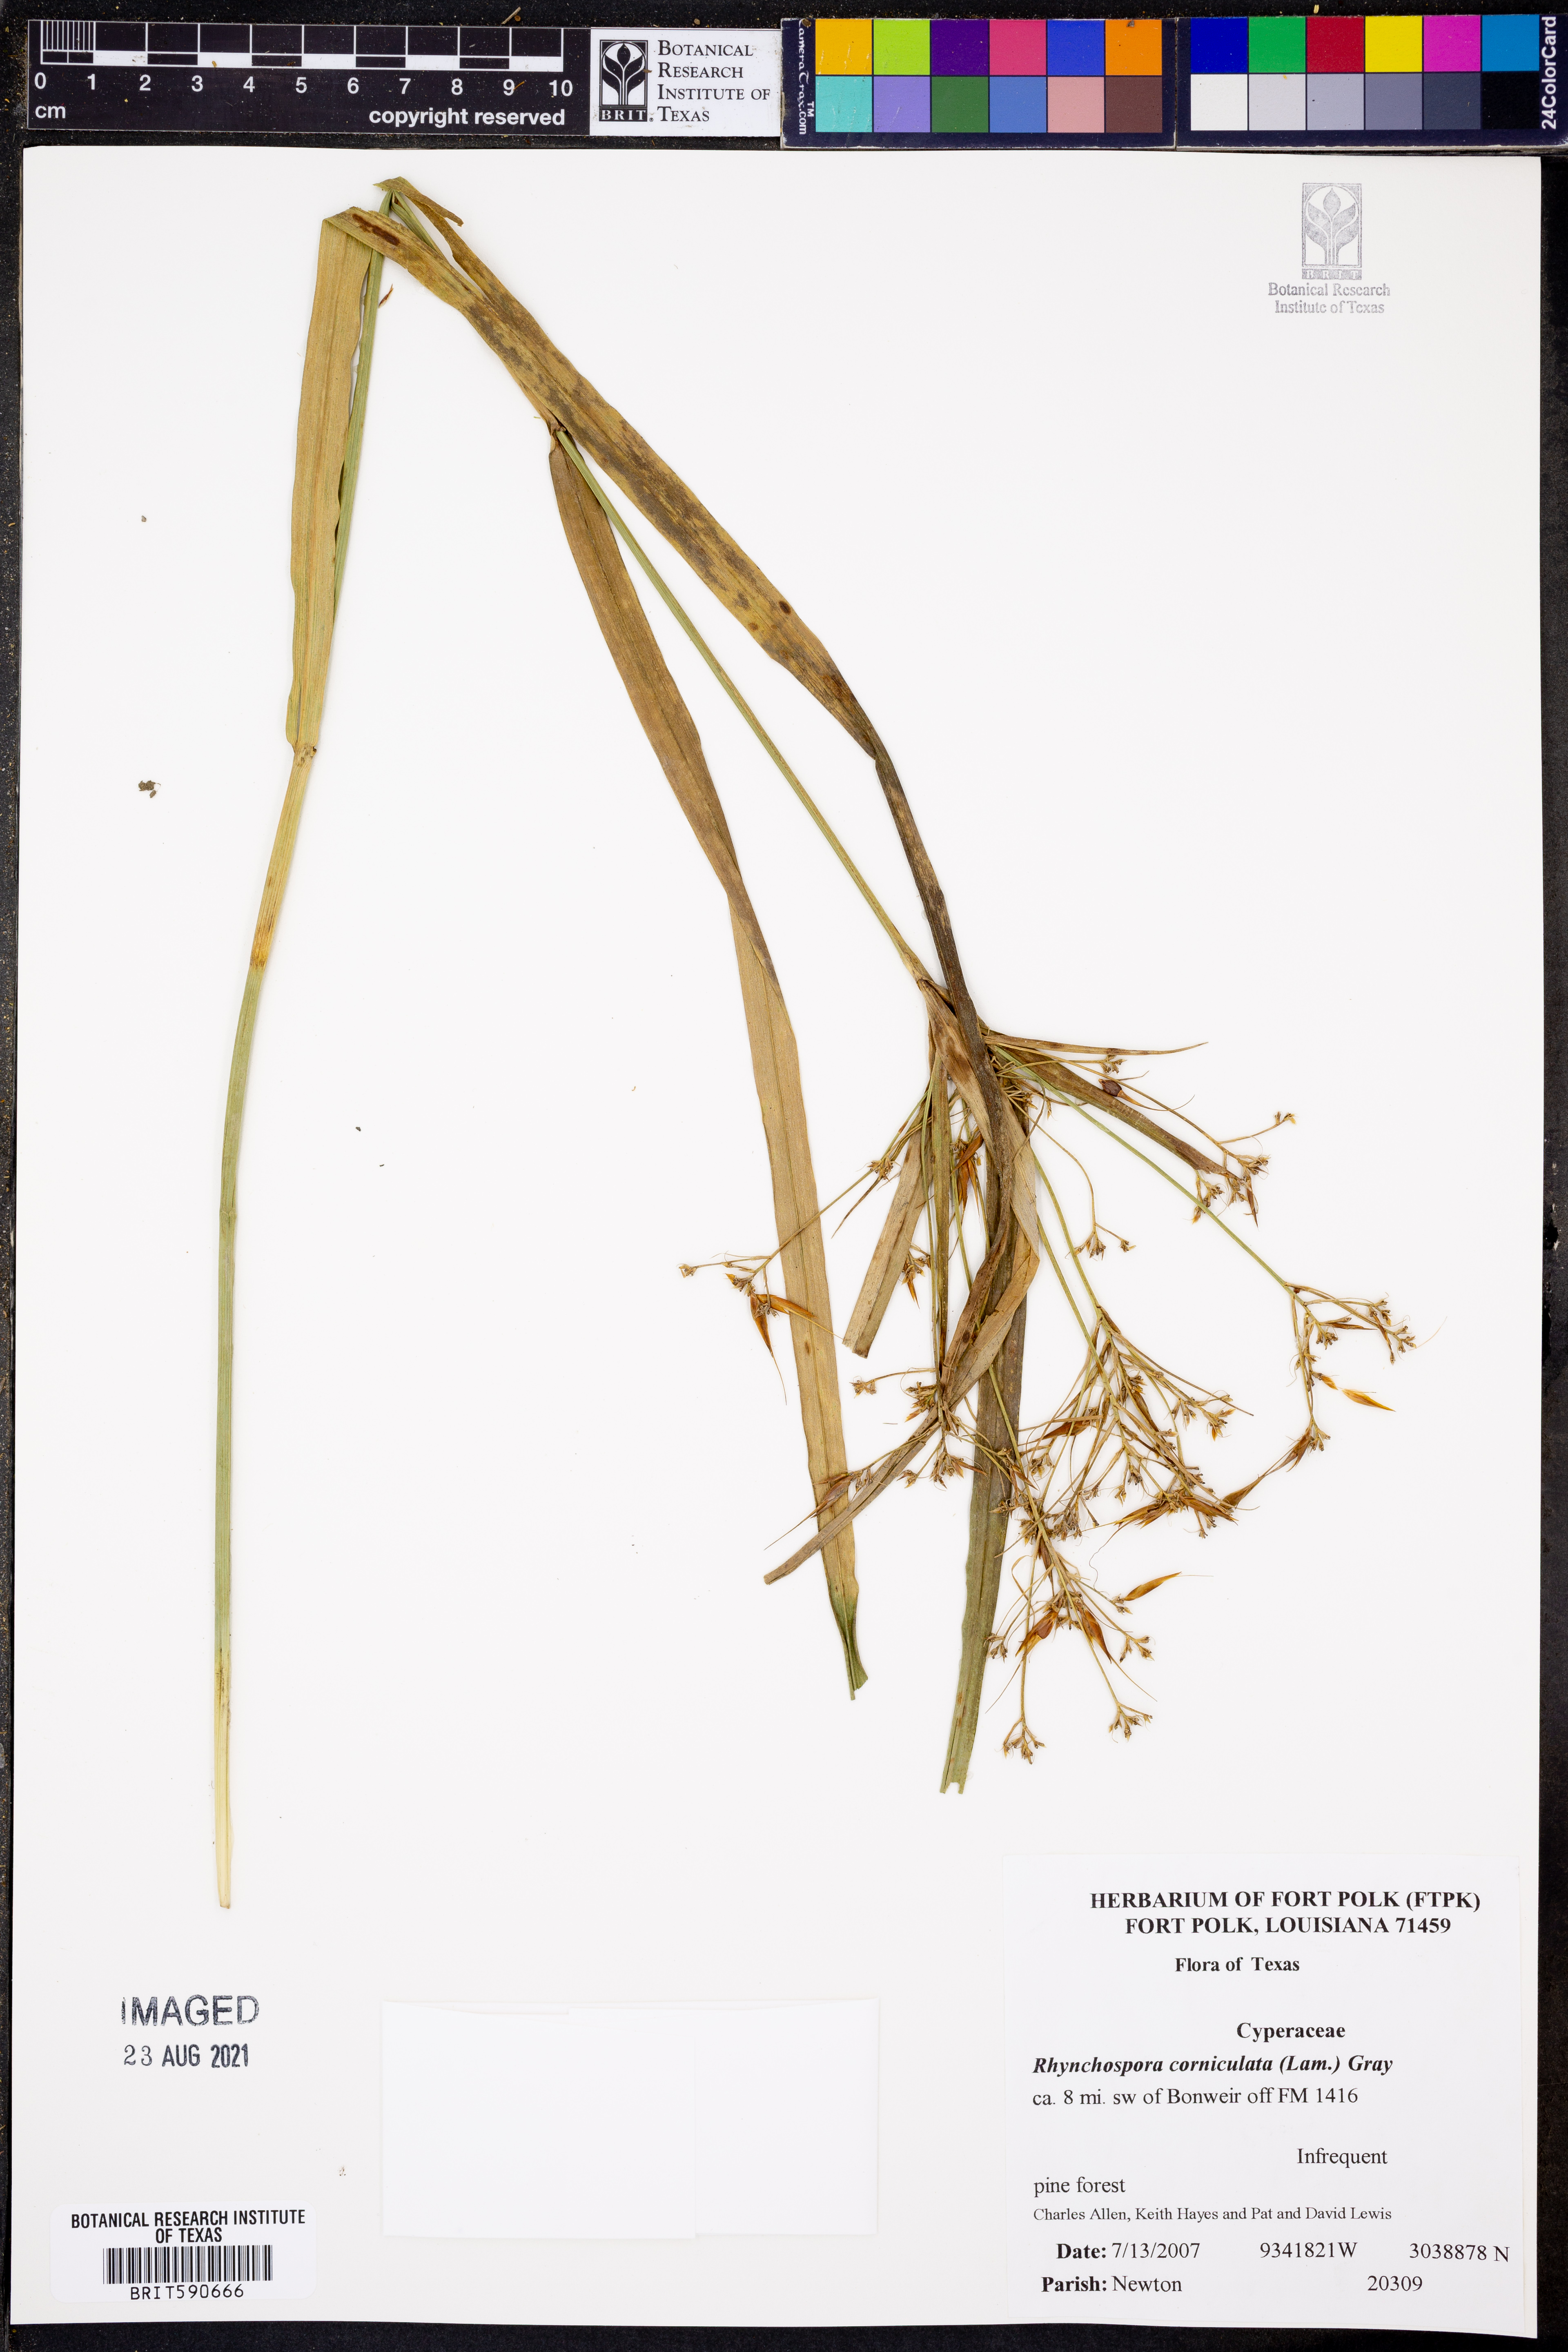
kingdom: Plantae
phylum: Tracheophyta
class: Liliopsida
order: Poales
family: Cyperaceae
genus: Rhynchospora
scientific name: Rhynchospora corniculata
